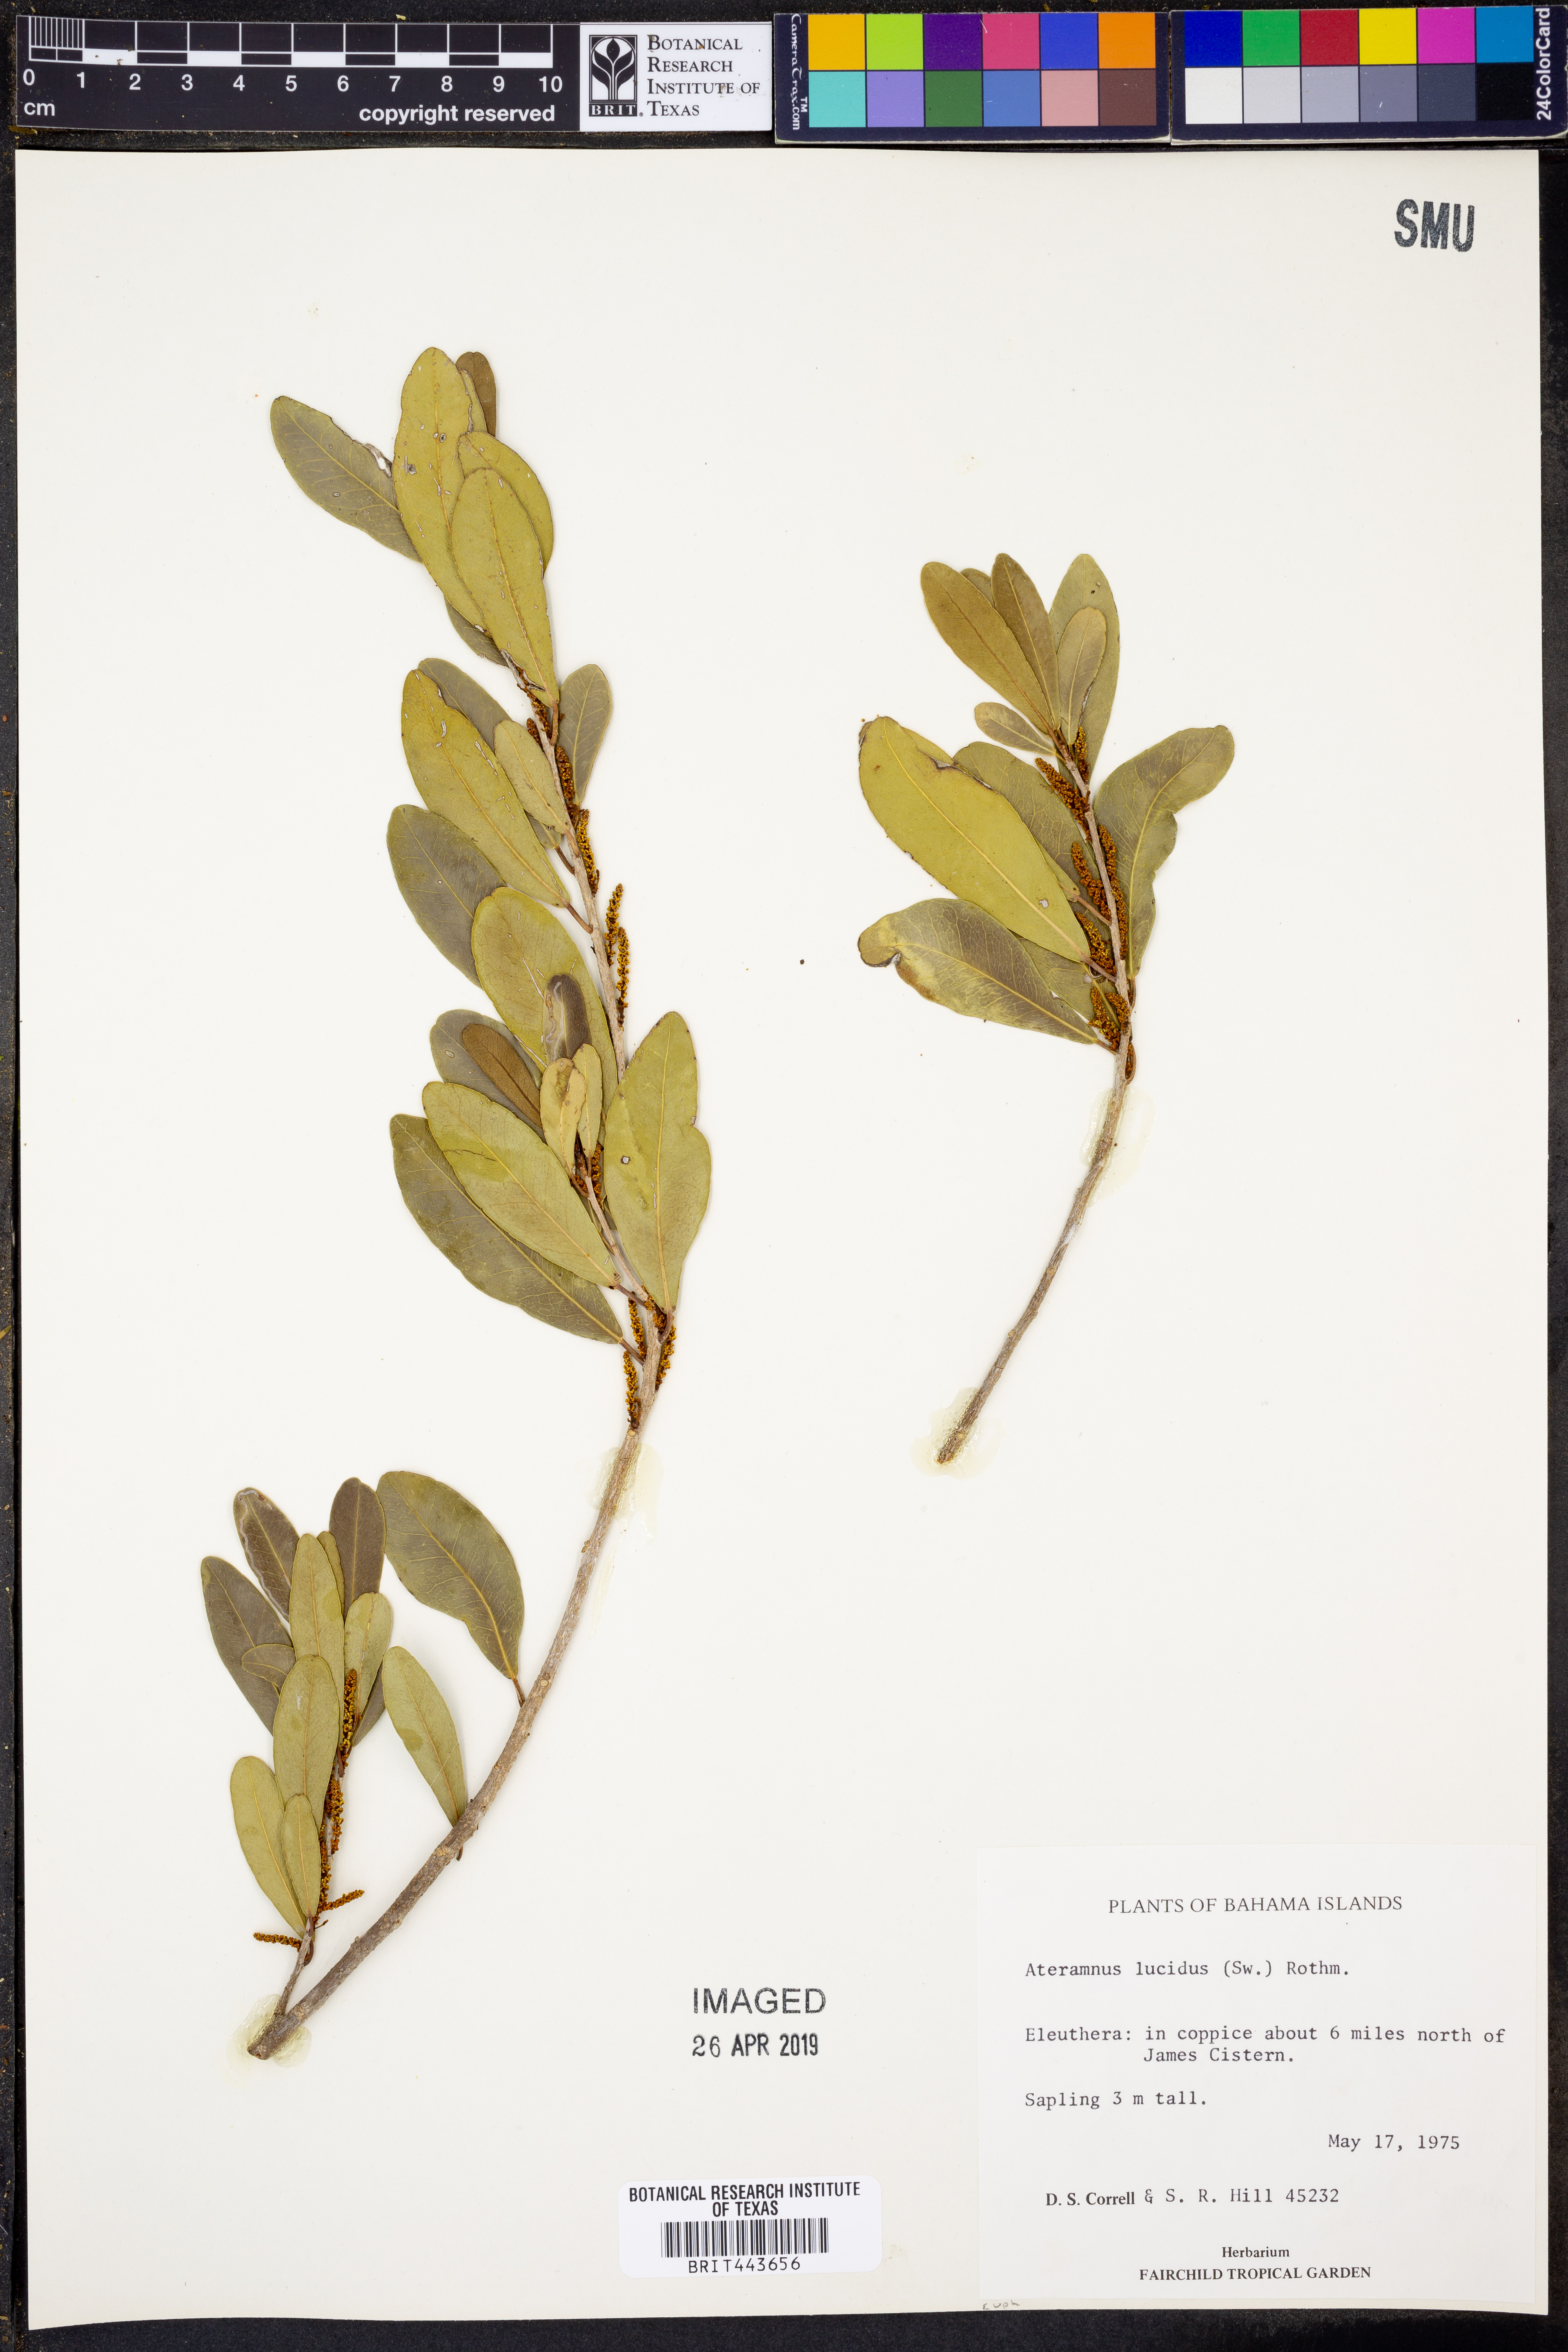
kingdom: Plantae
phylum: Tracheophyta
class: Magnoliopsida
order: Malpighiales
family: Euphorbiaceae
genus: Gymnanthes
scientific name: Gymnanthes lucida
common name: Oysterwood
